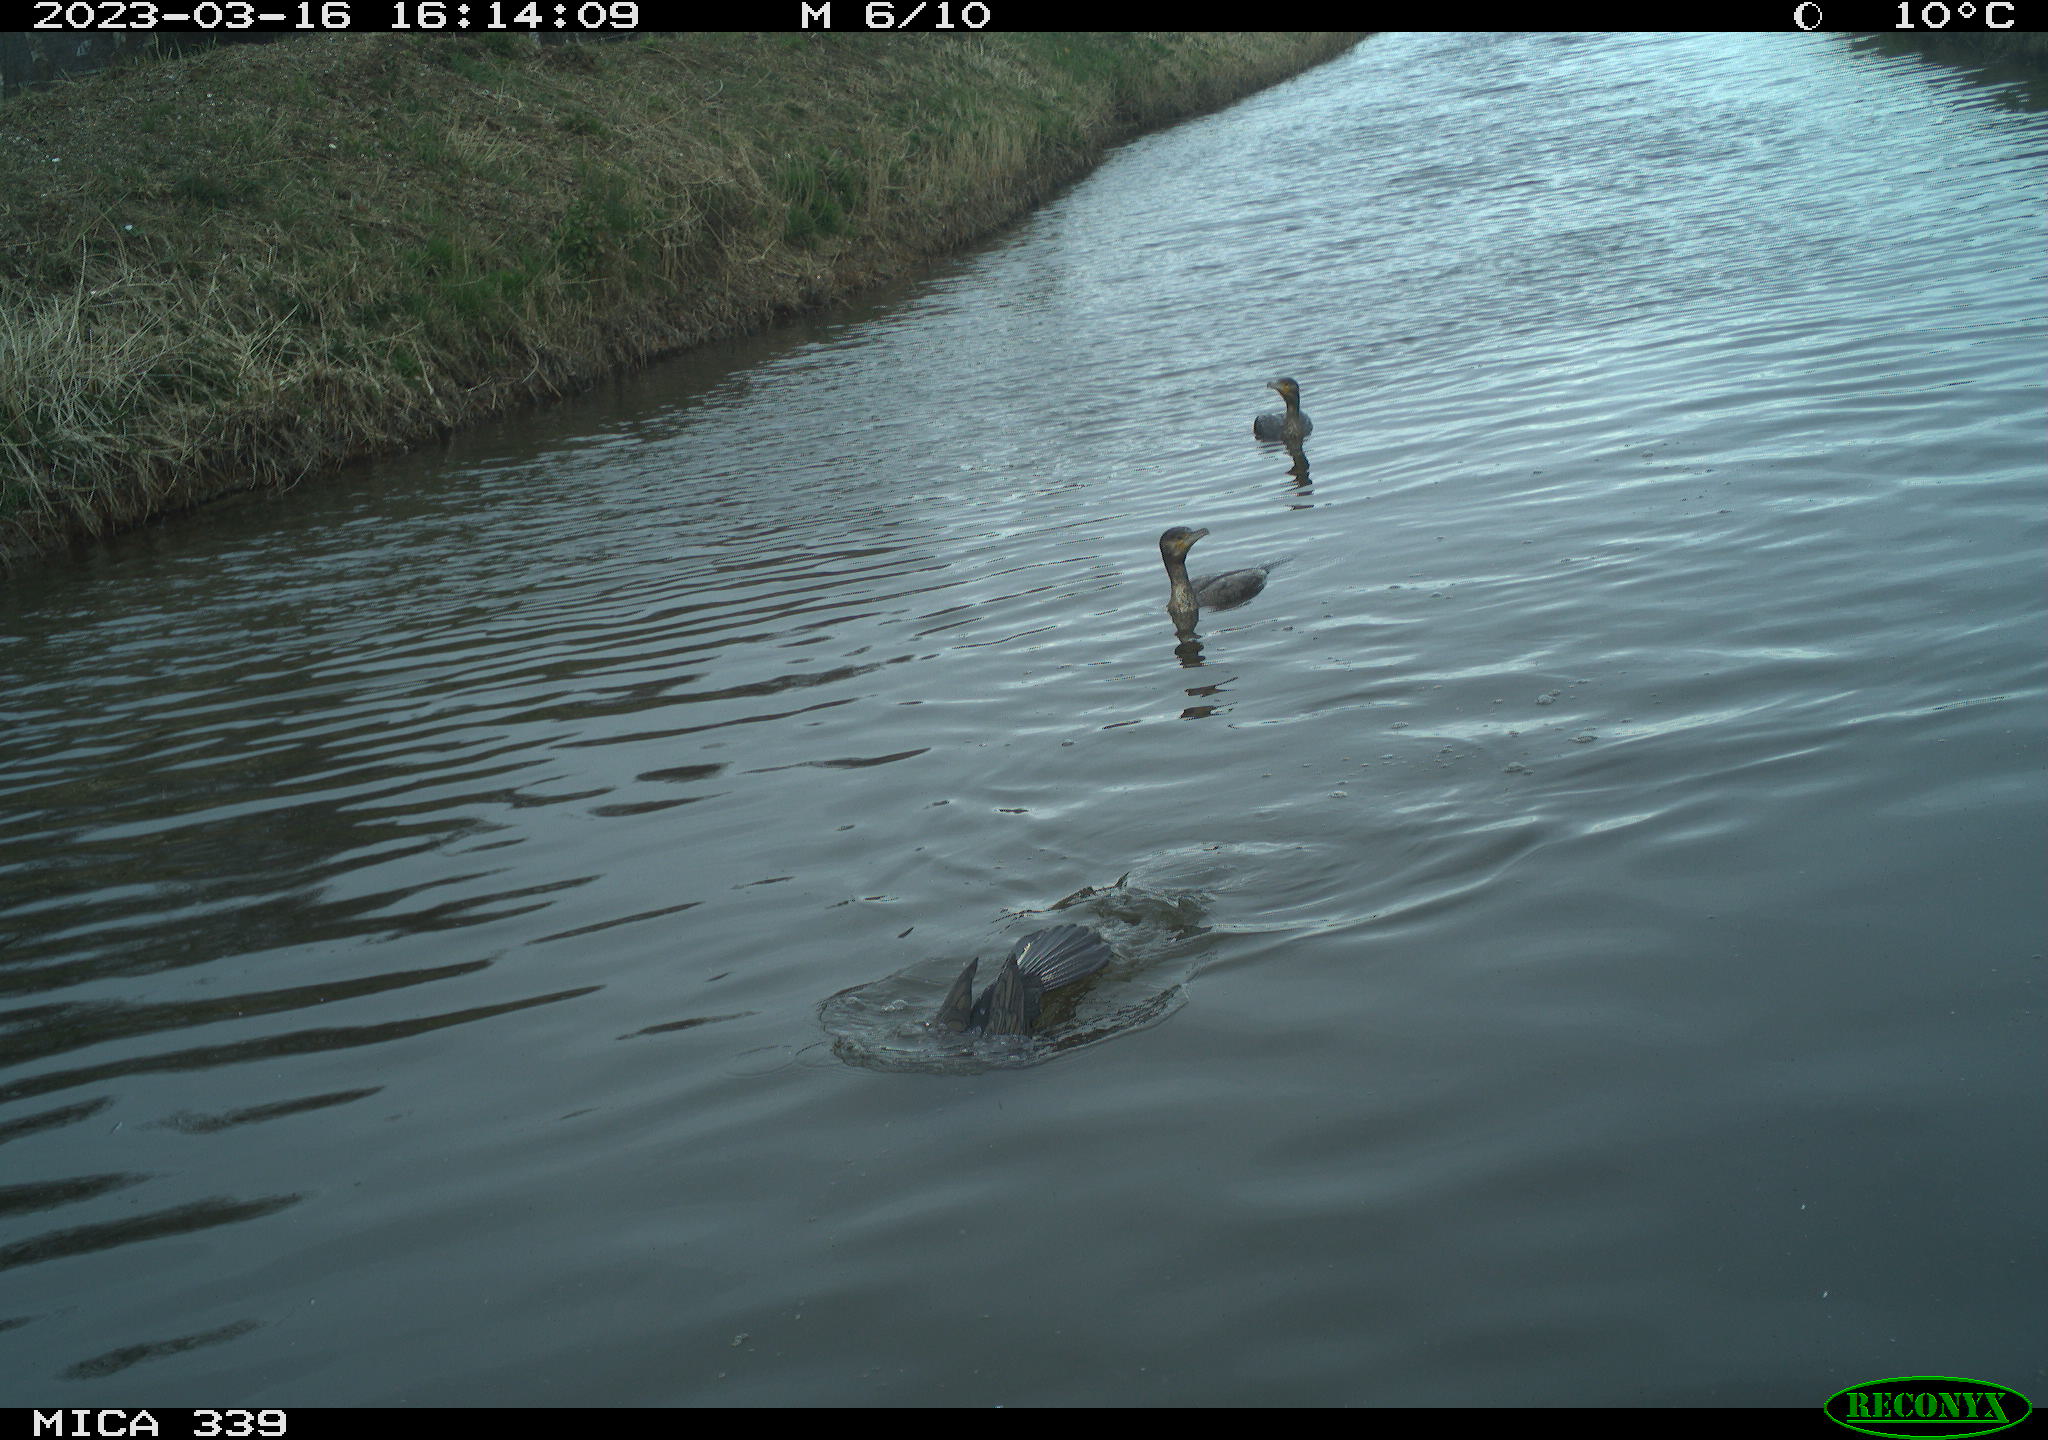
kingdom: Animalia
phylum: Chordata
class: Aves
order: Suliformes
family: Phalacrocoracidae
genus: Phalacrocorax
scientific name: Phalacrocorax carbo
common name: Great cormorant
